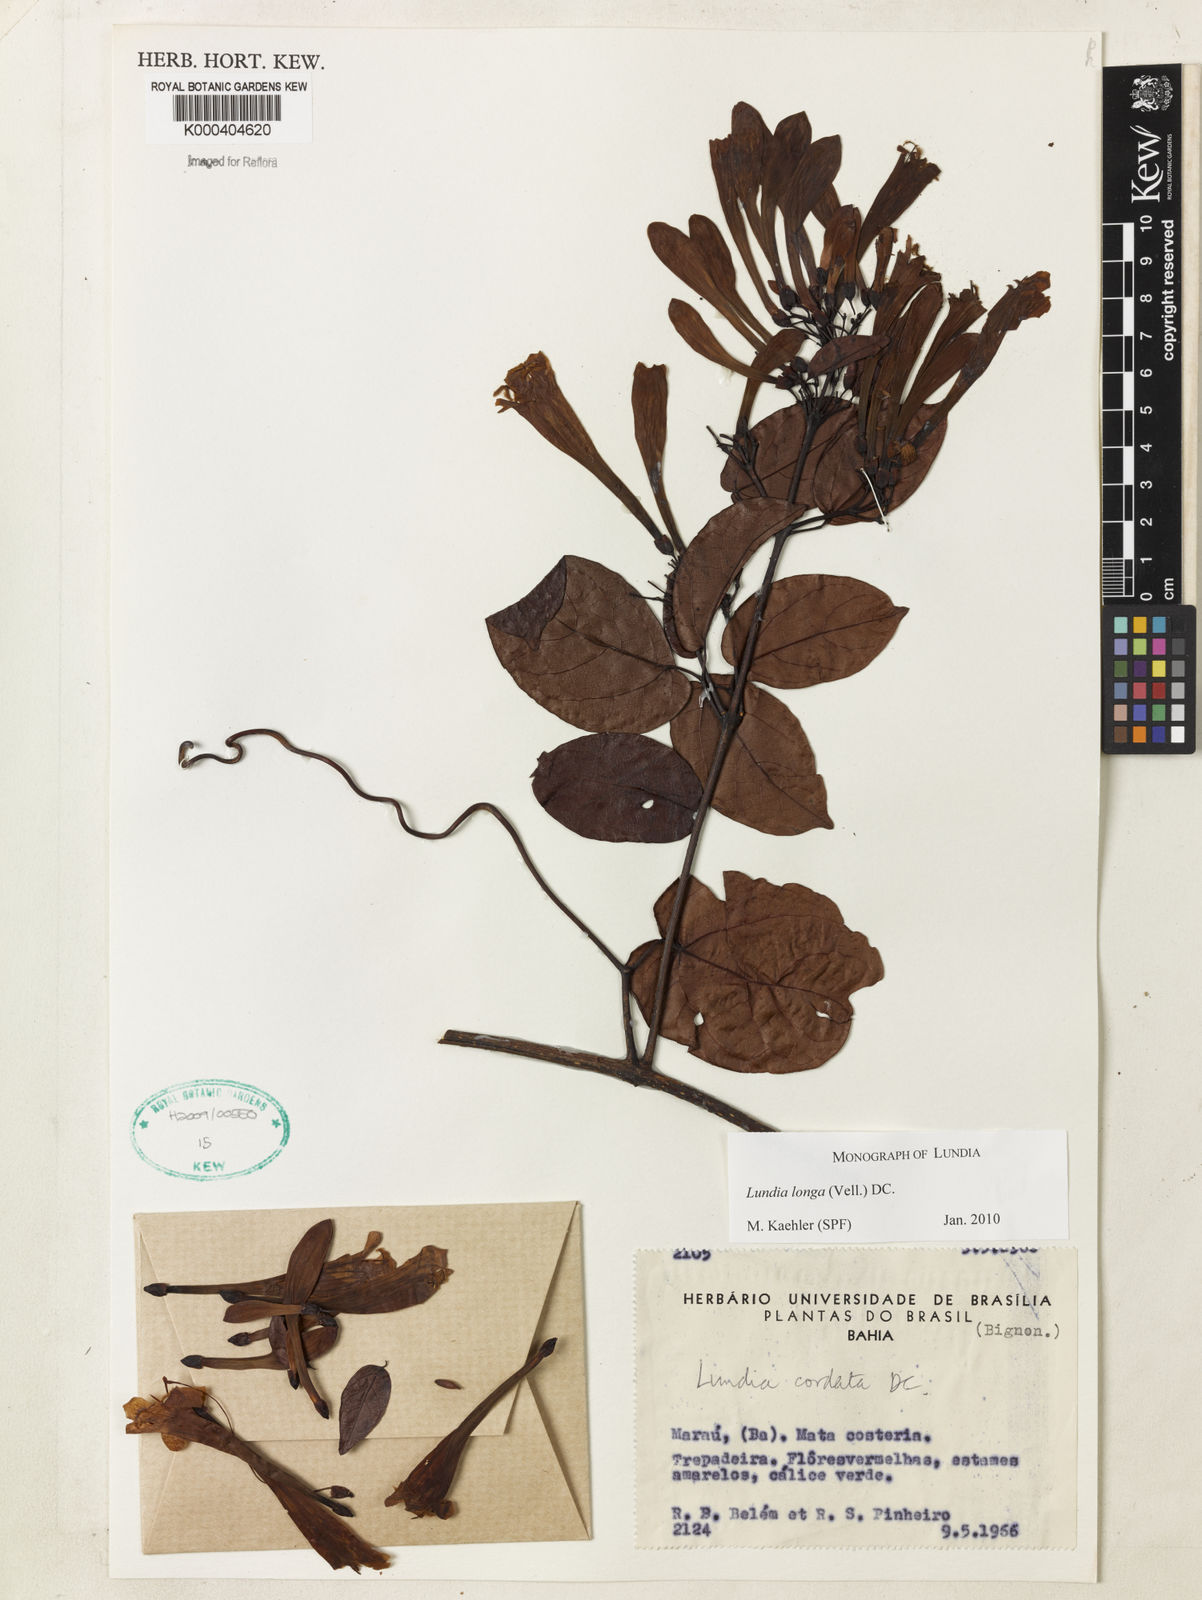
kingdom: Plantae
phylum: Tracheophyta
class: Magnoliopsida
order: Lamiales
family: Bignoniaceae
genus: Lundia
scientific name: Lundia longa
